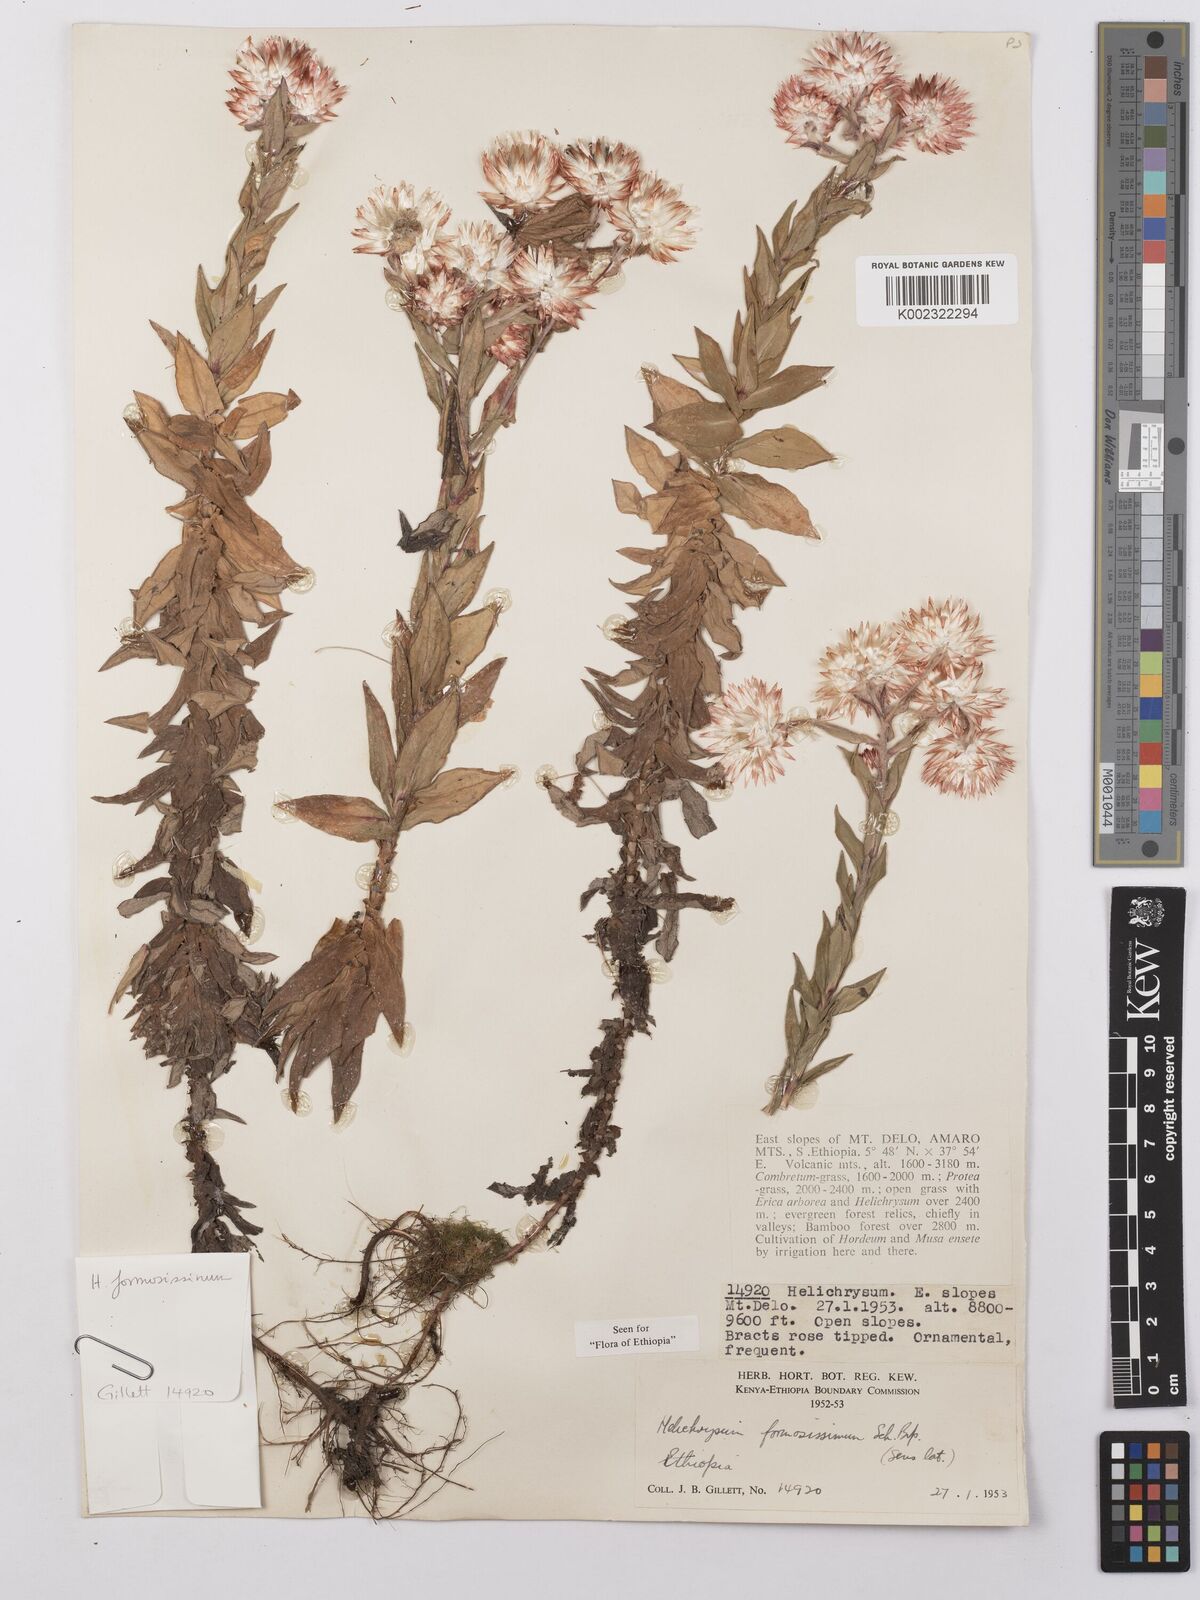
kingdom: Plantae
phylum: Tracheophyta
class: Magnoliopsida
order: Asterales
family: Asteraceae
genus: Helichrysum
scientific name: Helichrysum formosissimum
